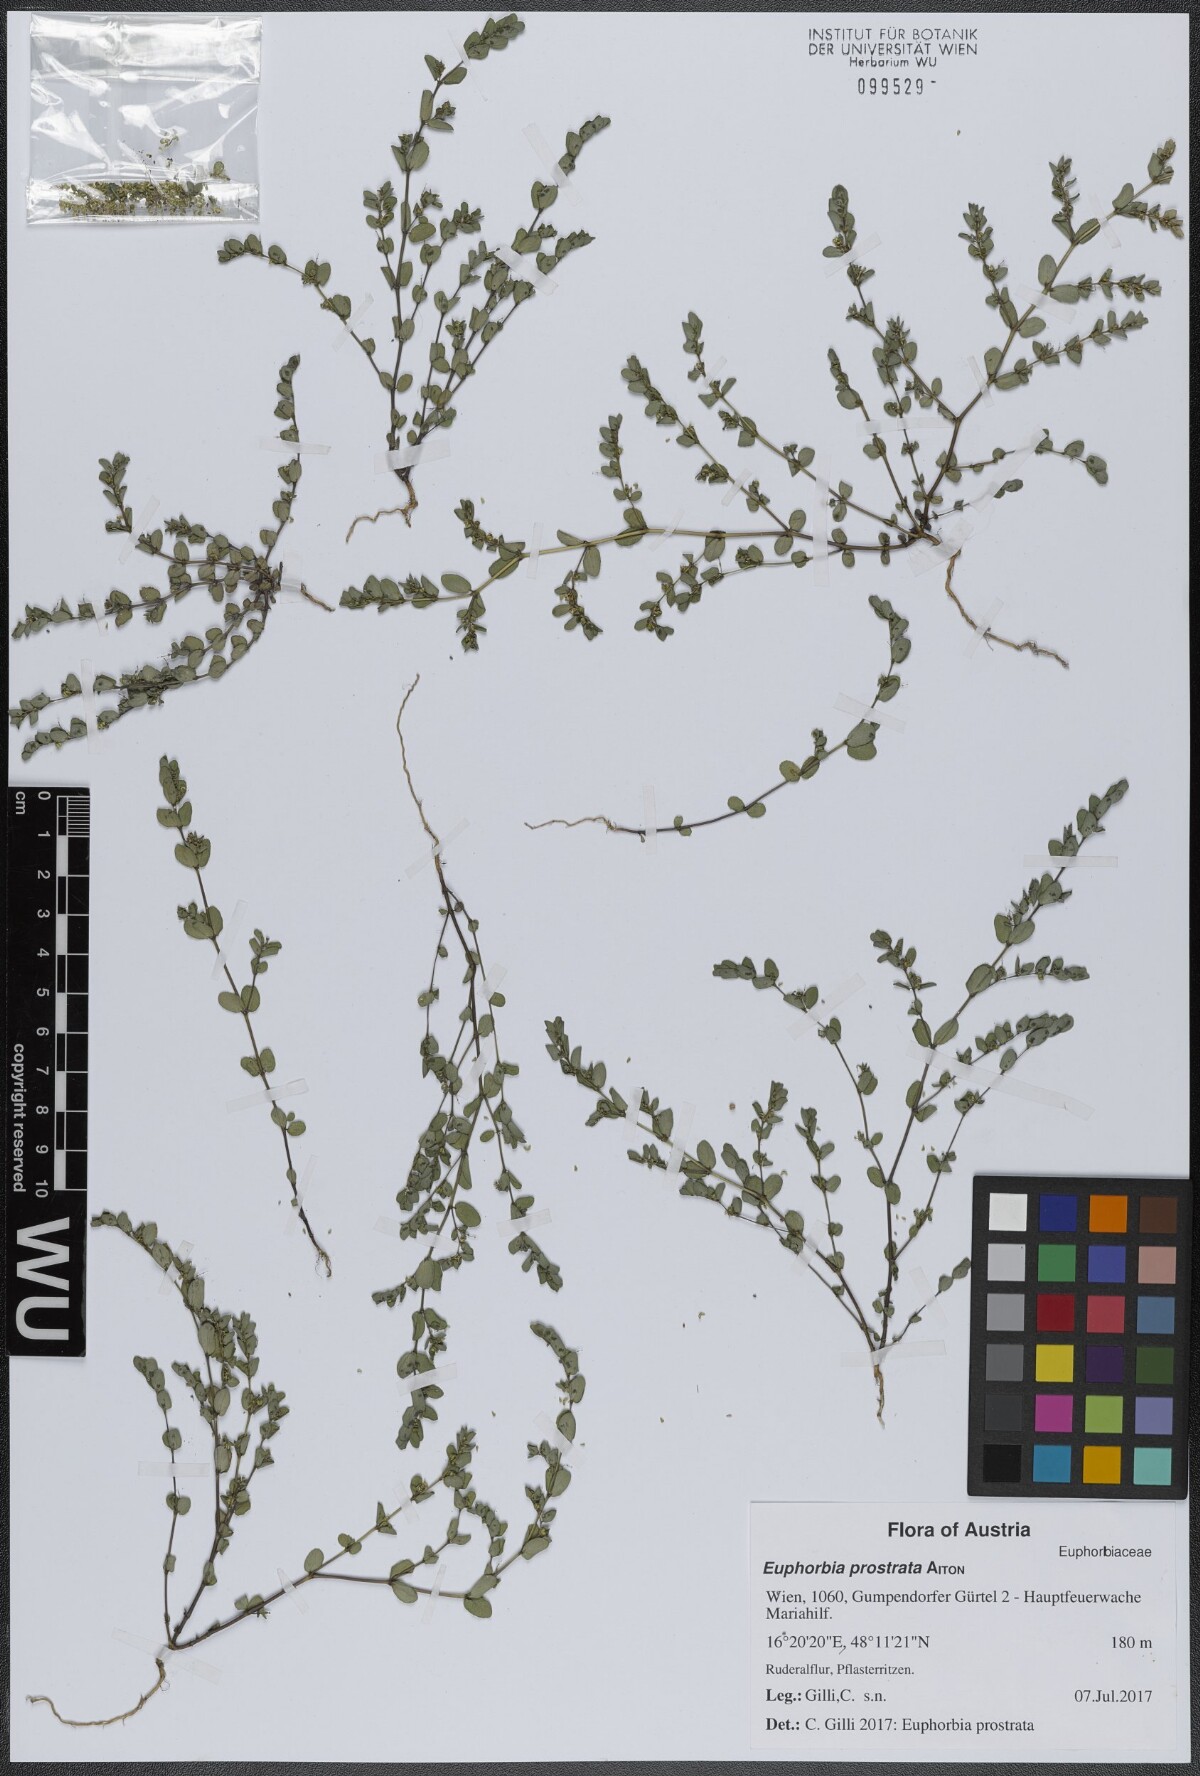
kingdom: Plantae
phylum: Tracheophyta
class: Magnoliopsida
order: Malpighiales
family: Euphorbiaceae
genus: Euphorbia
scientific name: Euphorbia prostrata
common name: Prostrate sandmat
